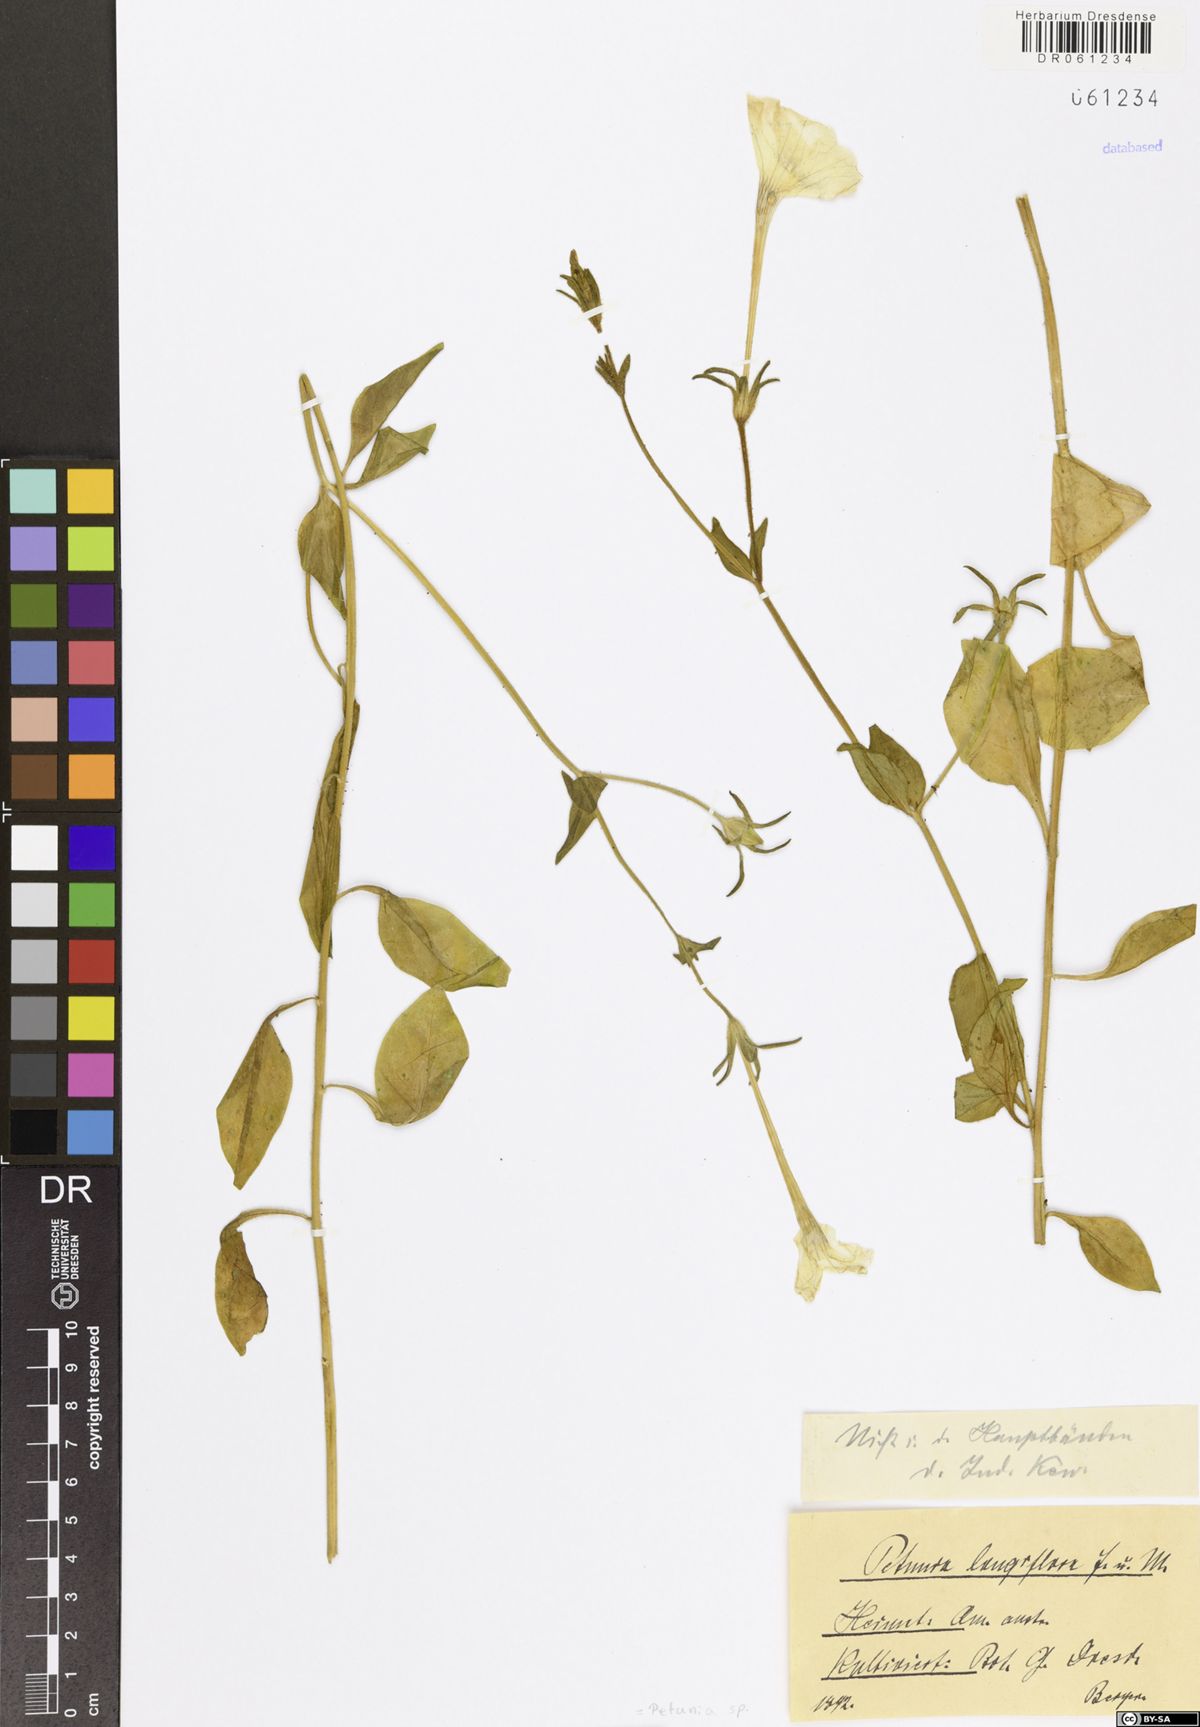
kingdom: Plantae
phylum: Tracheophyta
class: Magnoliopsida
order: Solanales
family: Solanaceae
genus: Petunia
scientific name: Petunia
